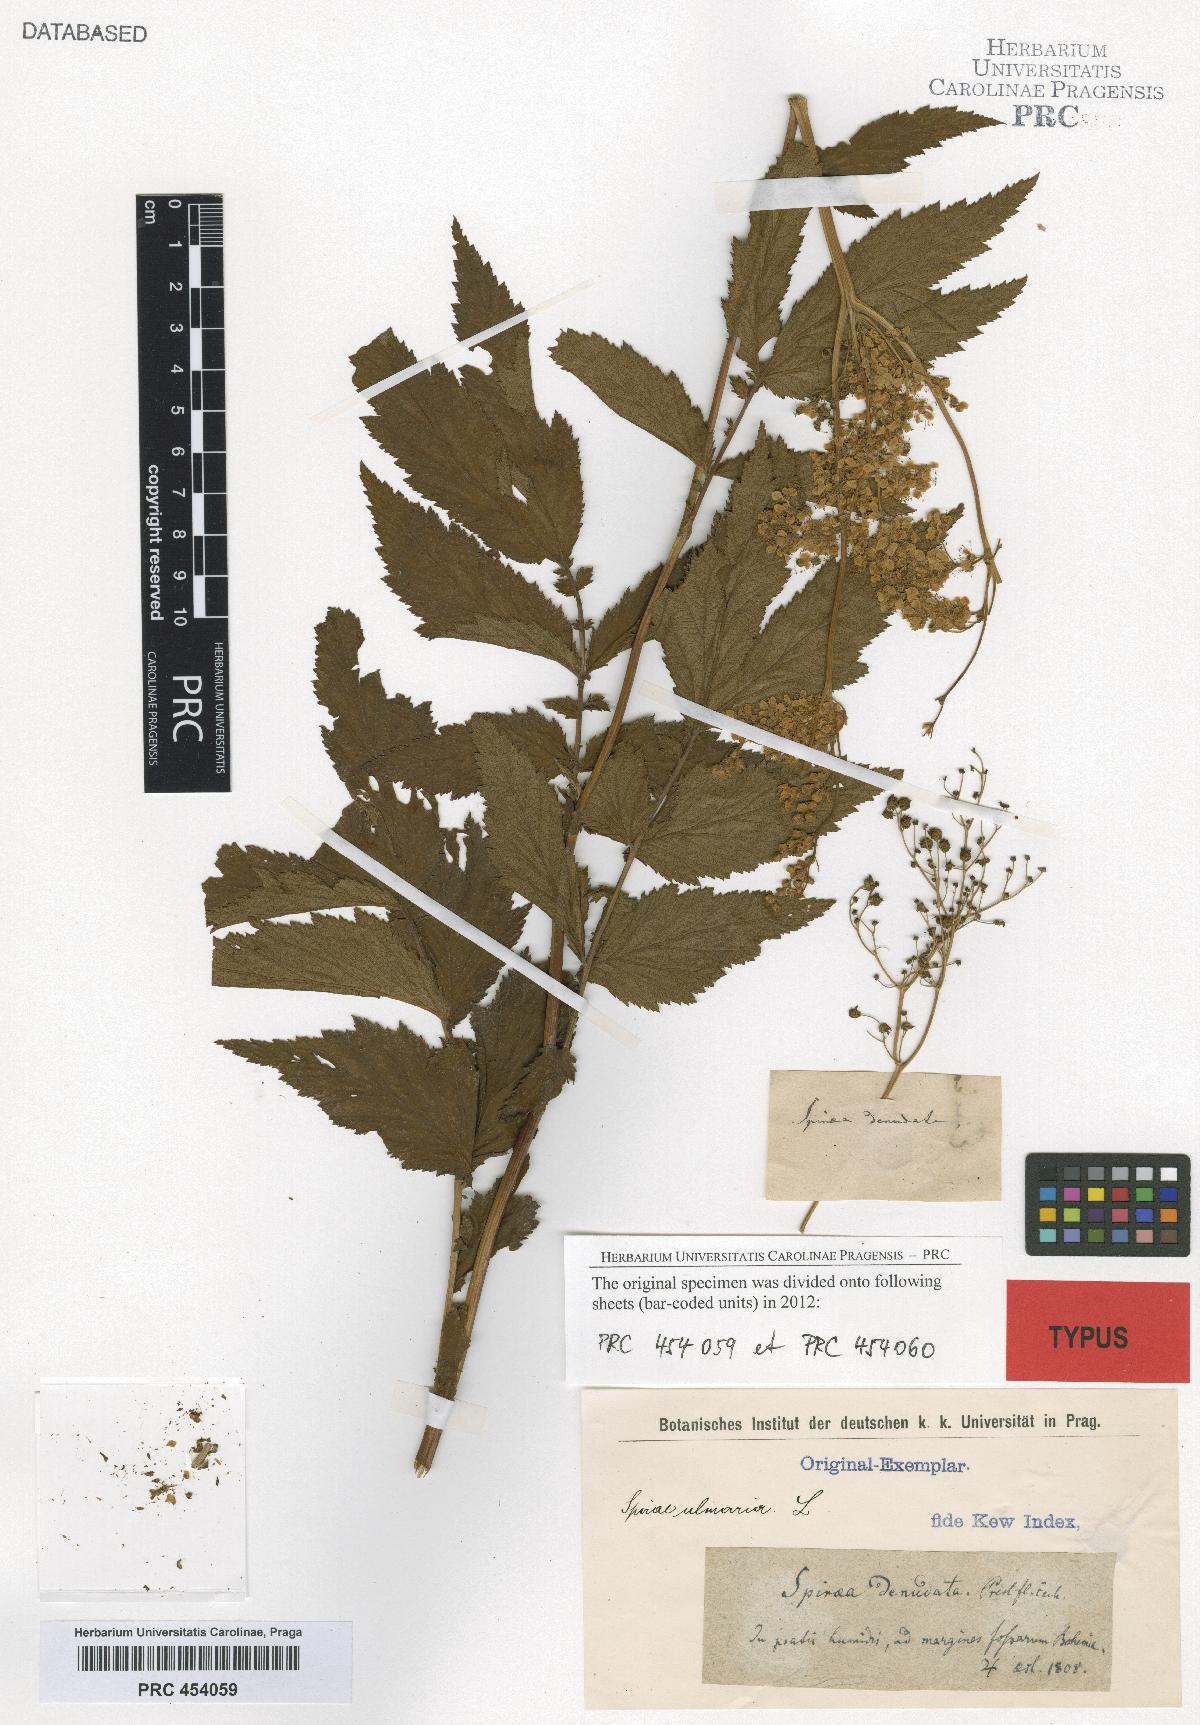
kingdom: Plantae
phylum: Tracheophyta
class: Magnoliopsida
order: Rosales
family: Rosaceae
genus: Filipendula
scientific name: Filipendula ulmaria
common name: Meadowsweet
